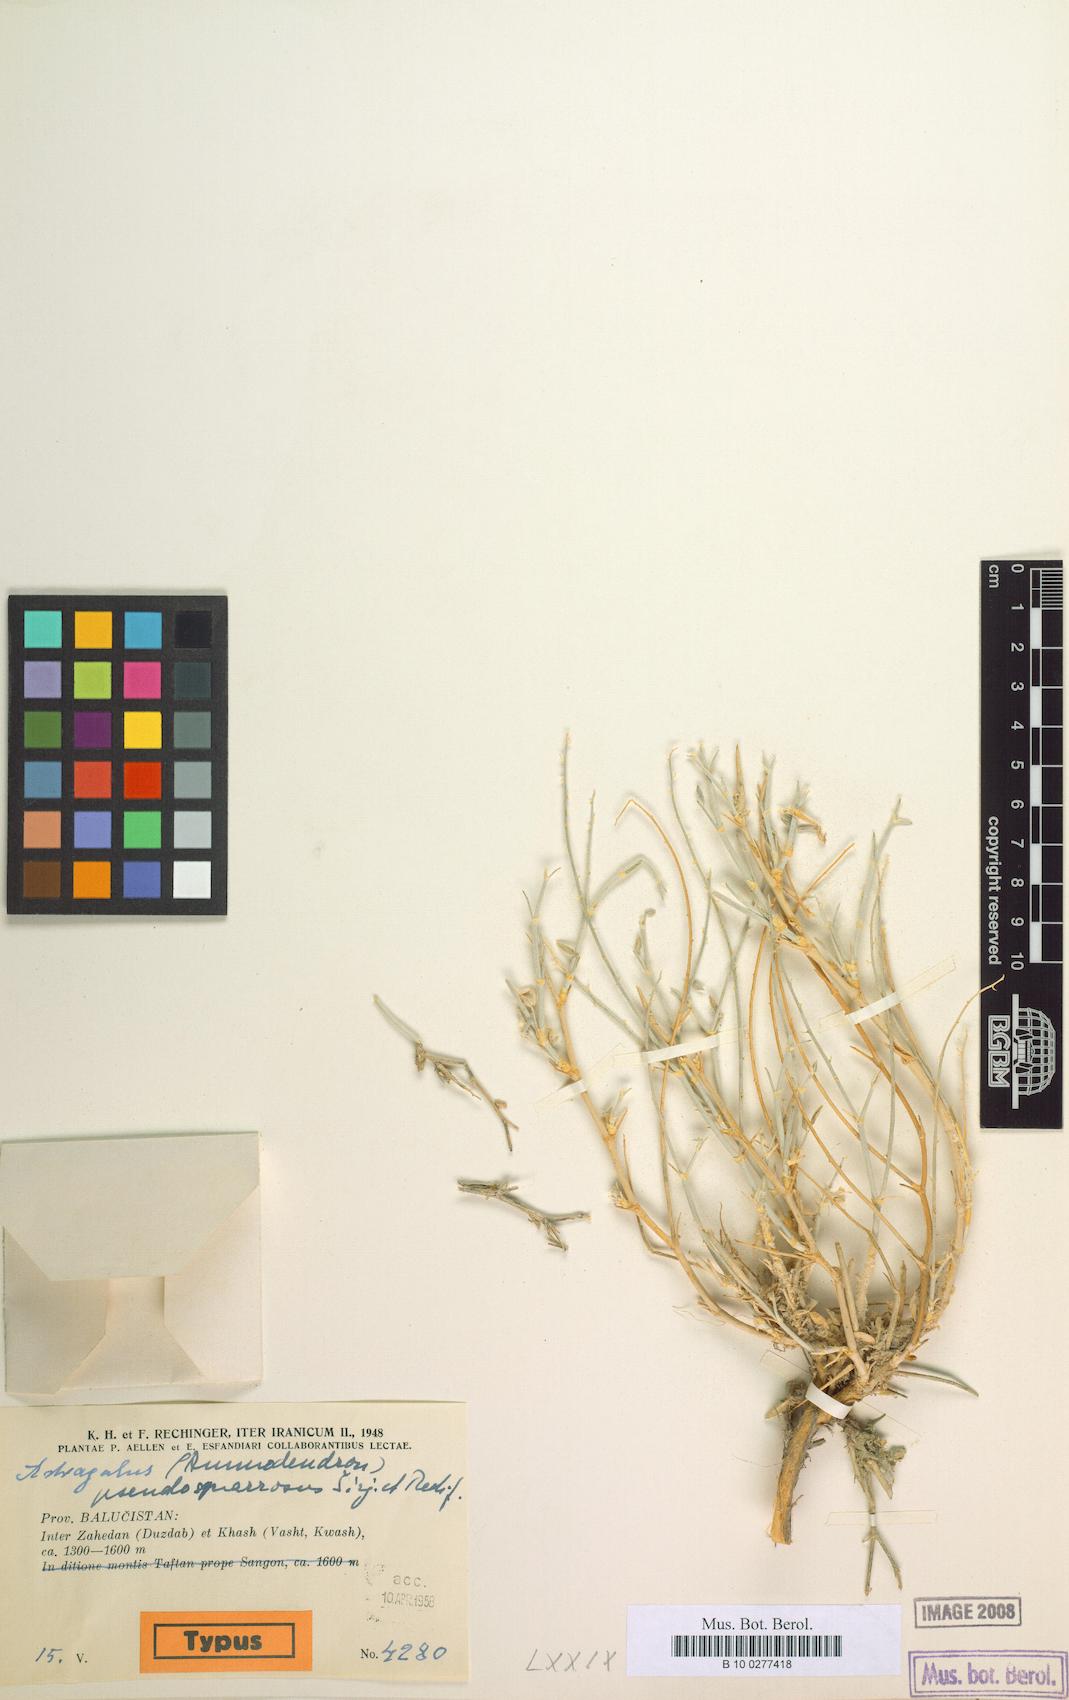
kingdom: Plantae
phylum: Tracheophyta
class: Magnoliopsida
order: Fabales
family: Fabaceae
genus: Astragalus
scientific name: Astragalus sangonensis
